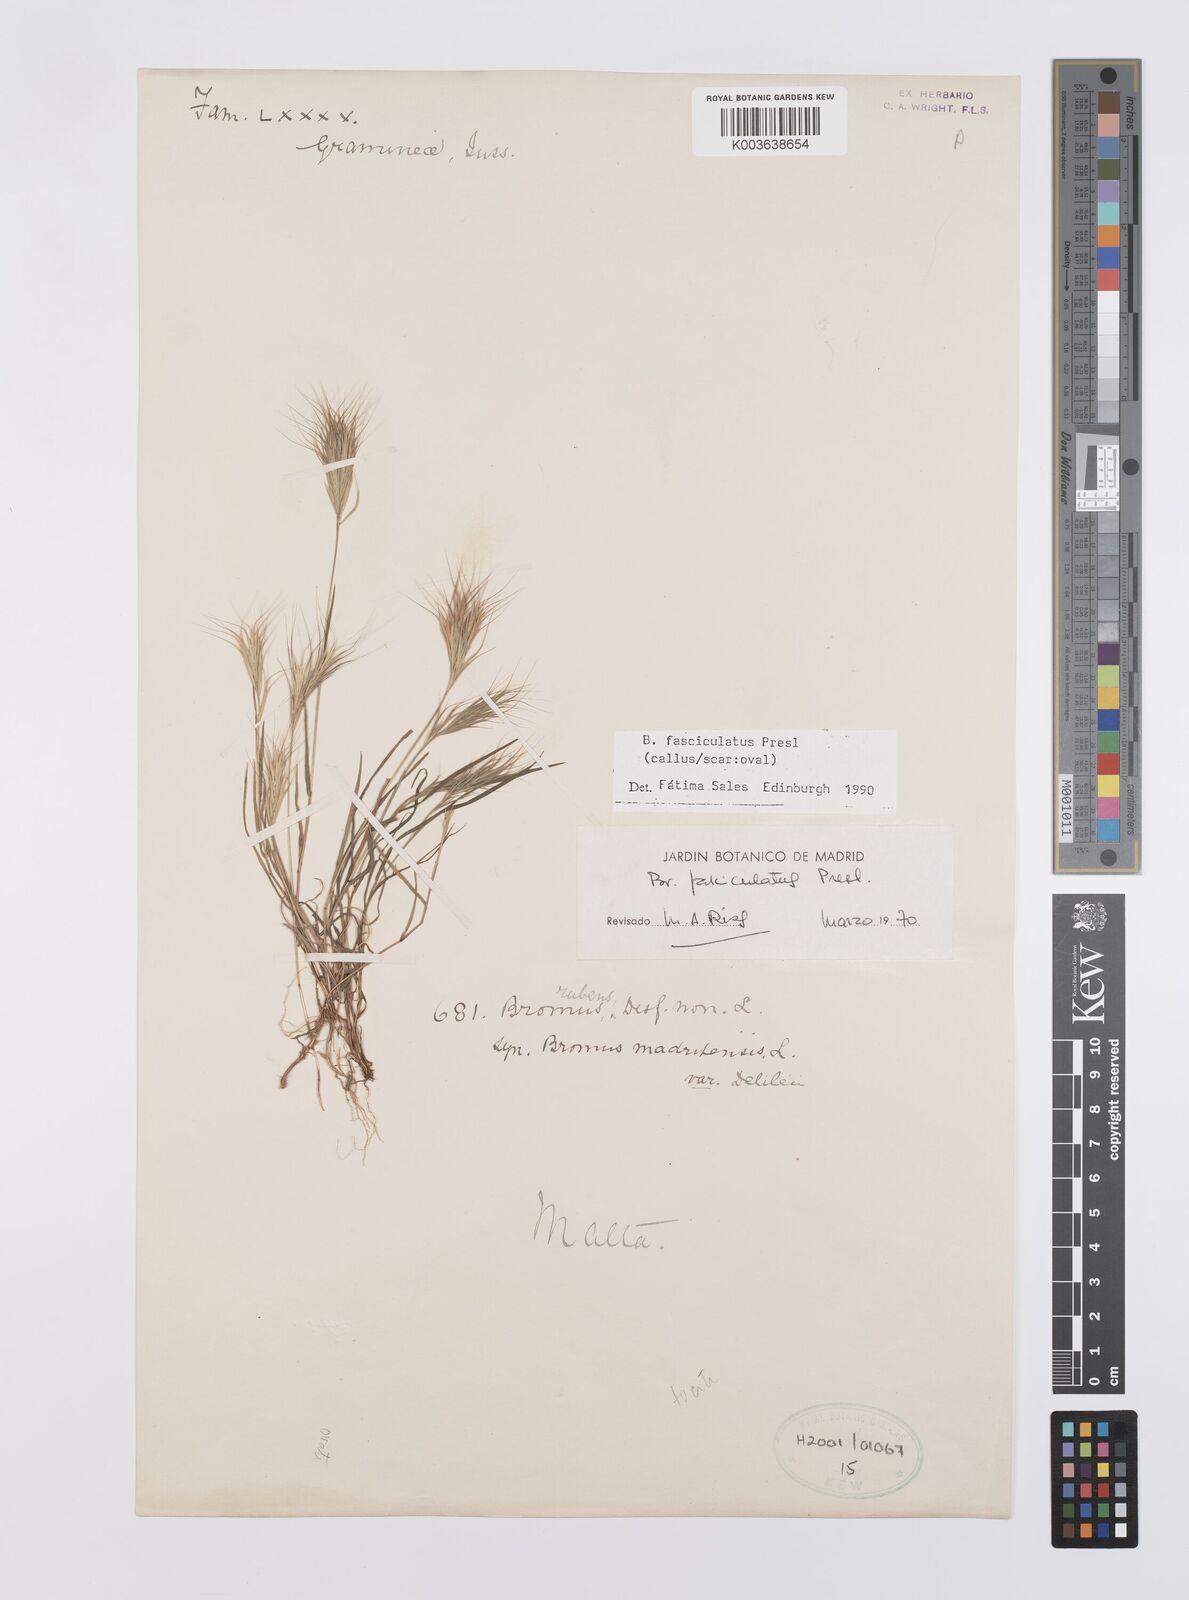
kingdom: Plantae
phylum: Tracheophyta
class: Liliopsida
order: Poales
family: Poaceae
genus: Bromus
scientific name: Bromus fasciculatus
